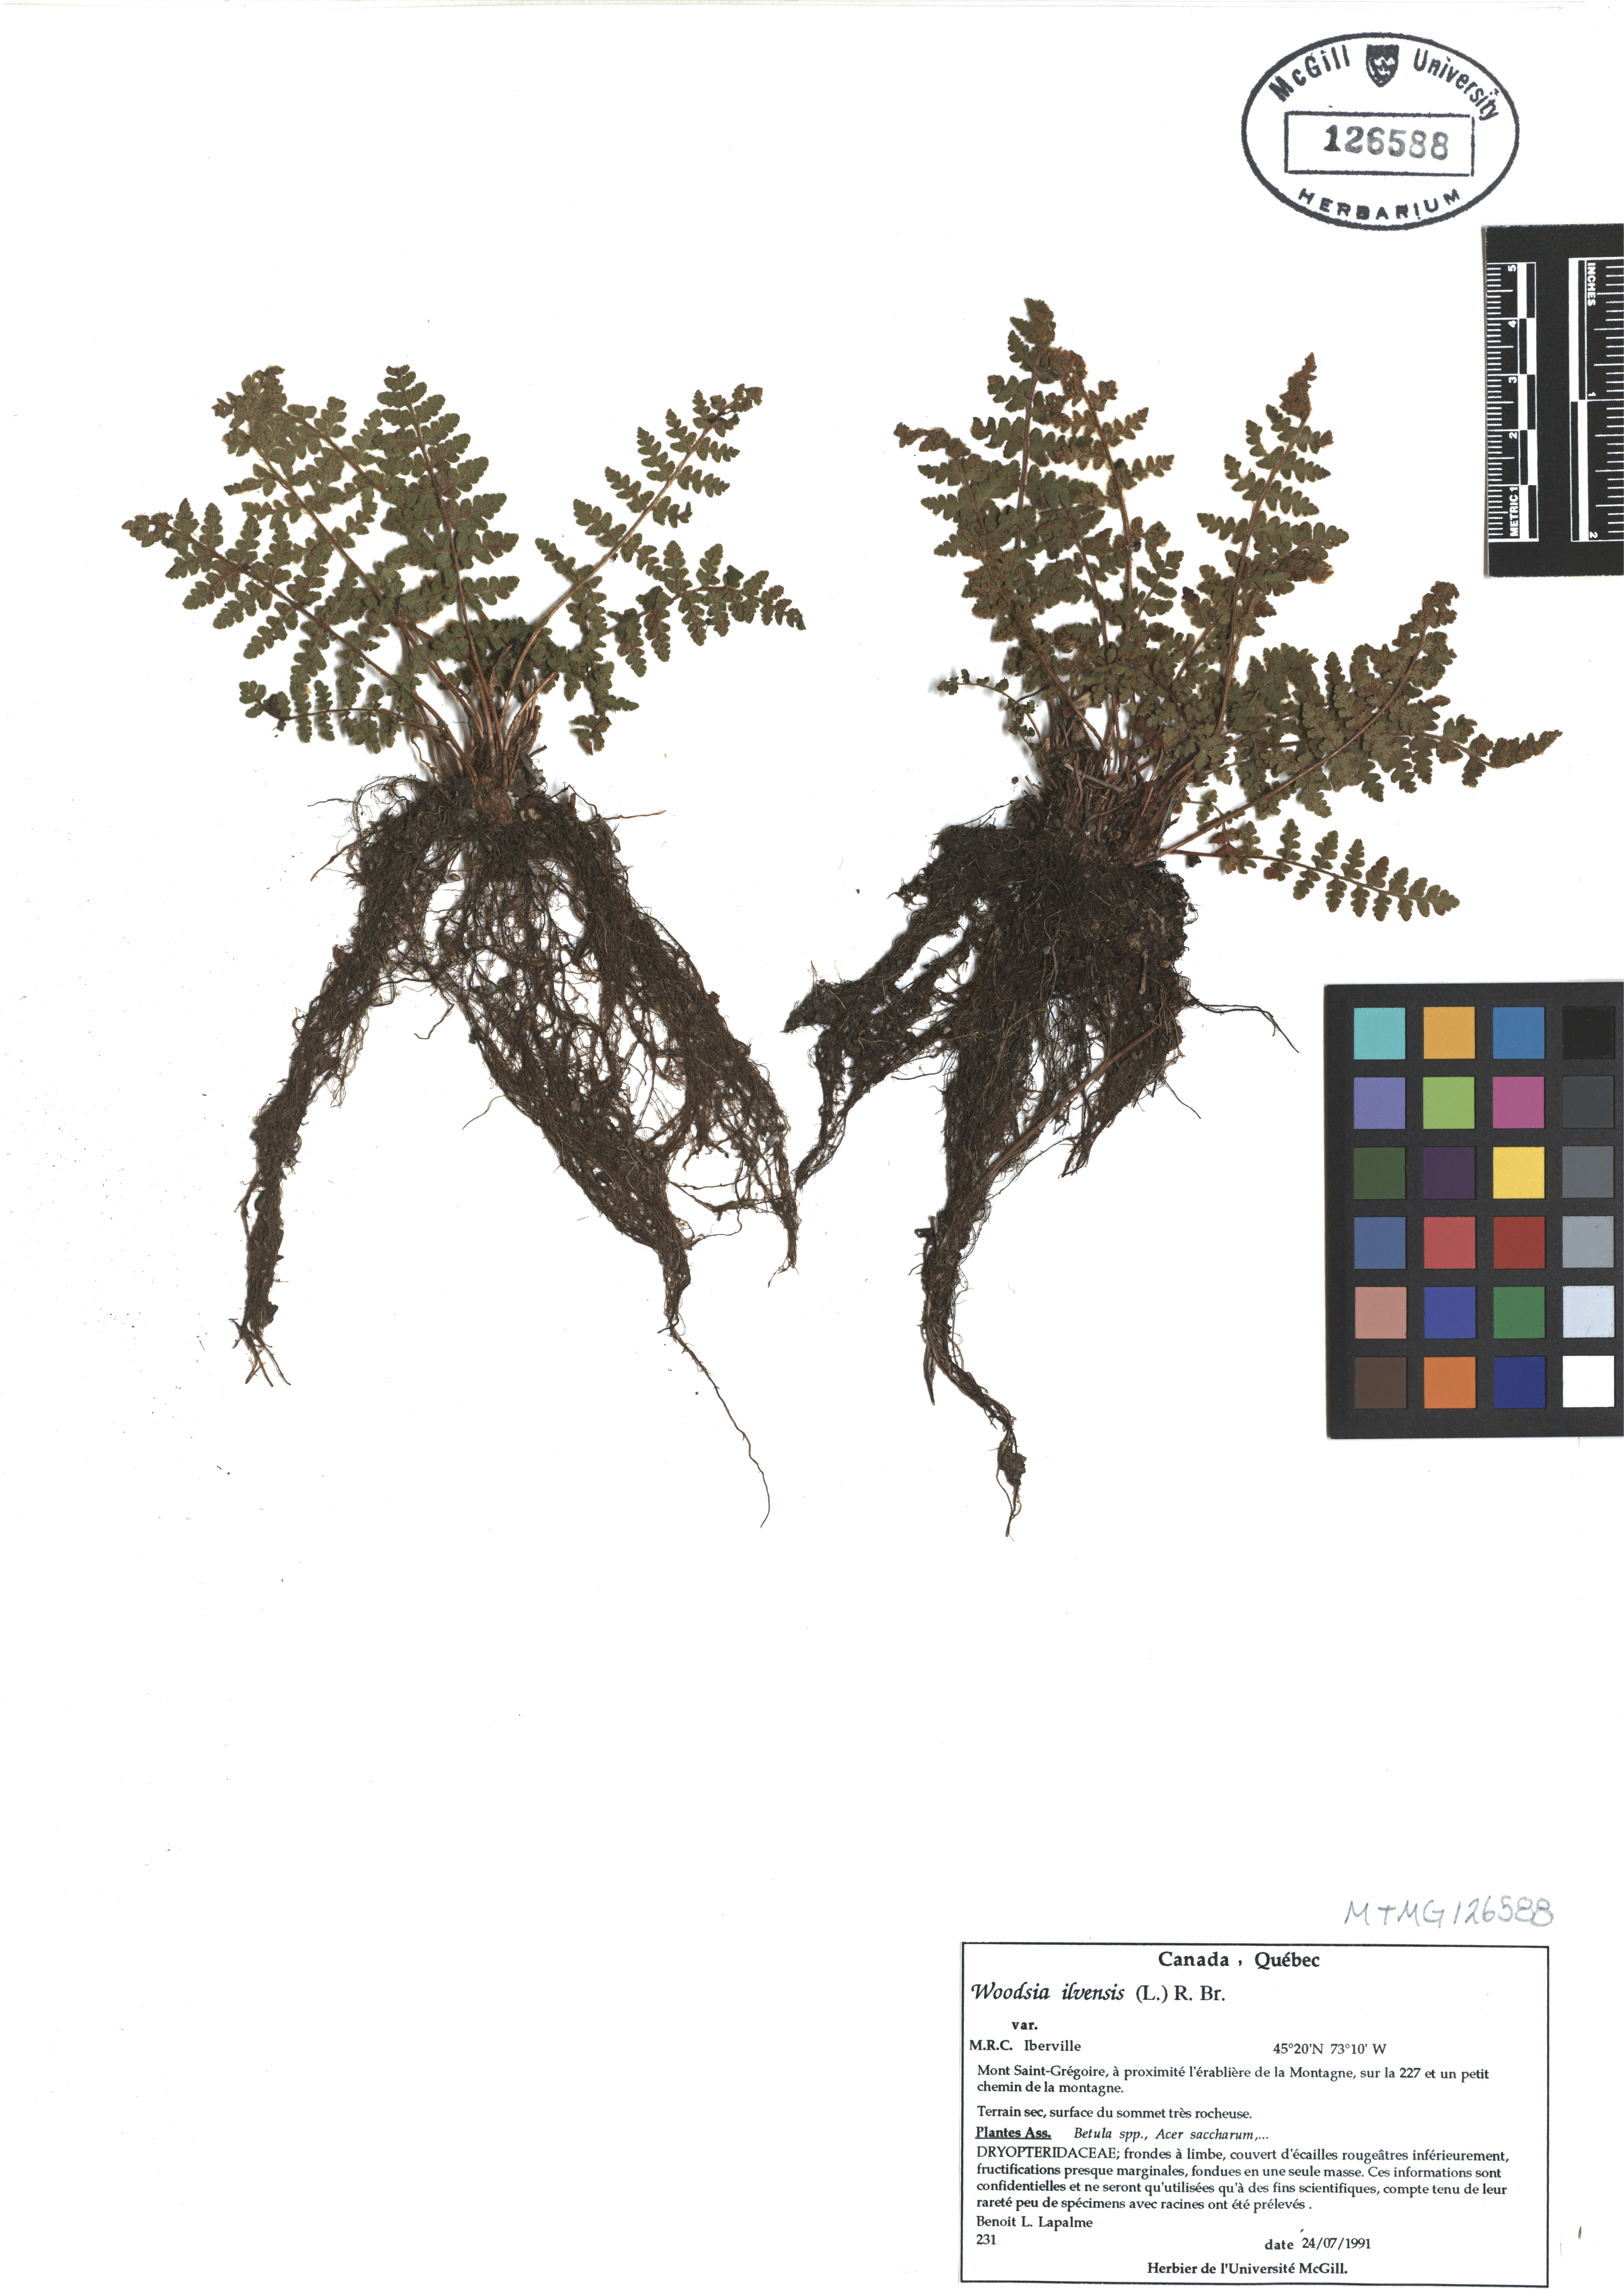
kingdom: Plantae
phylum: Tracheophyta
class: Polypodiopsida
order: Polypodiales
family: Woodsiaceae
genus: Woodsia
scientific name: Woodsia ilvensis
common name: Fragrant woodsia
